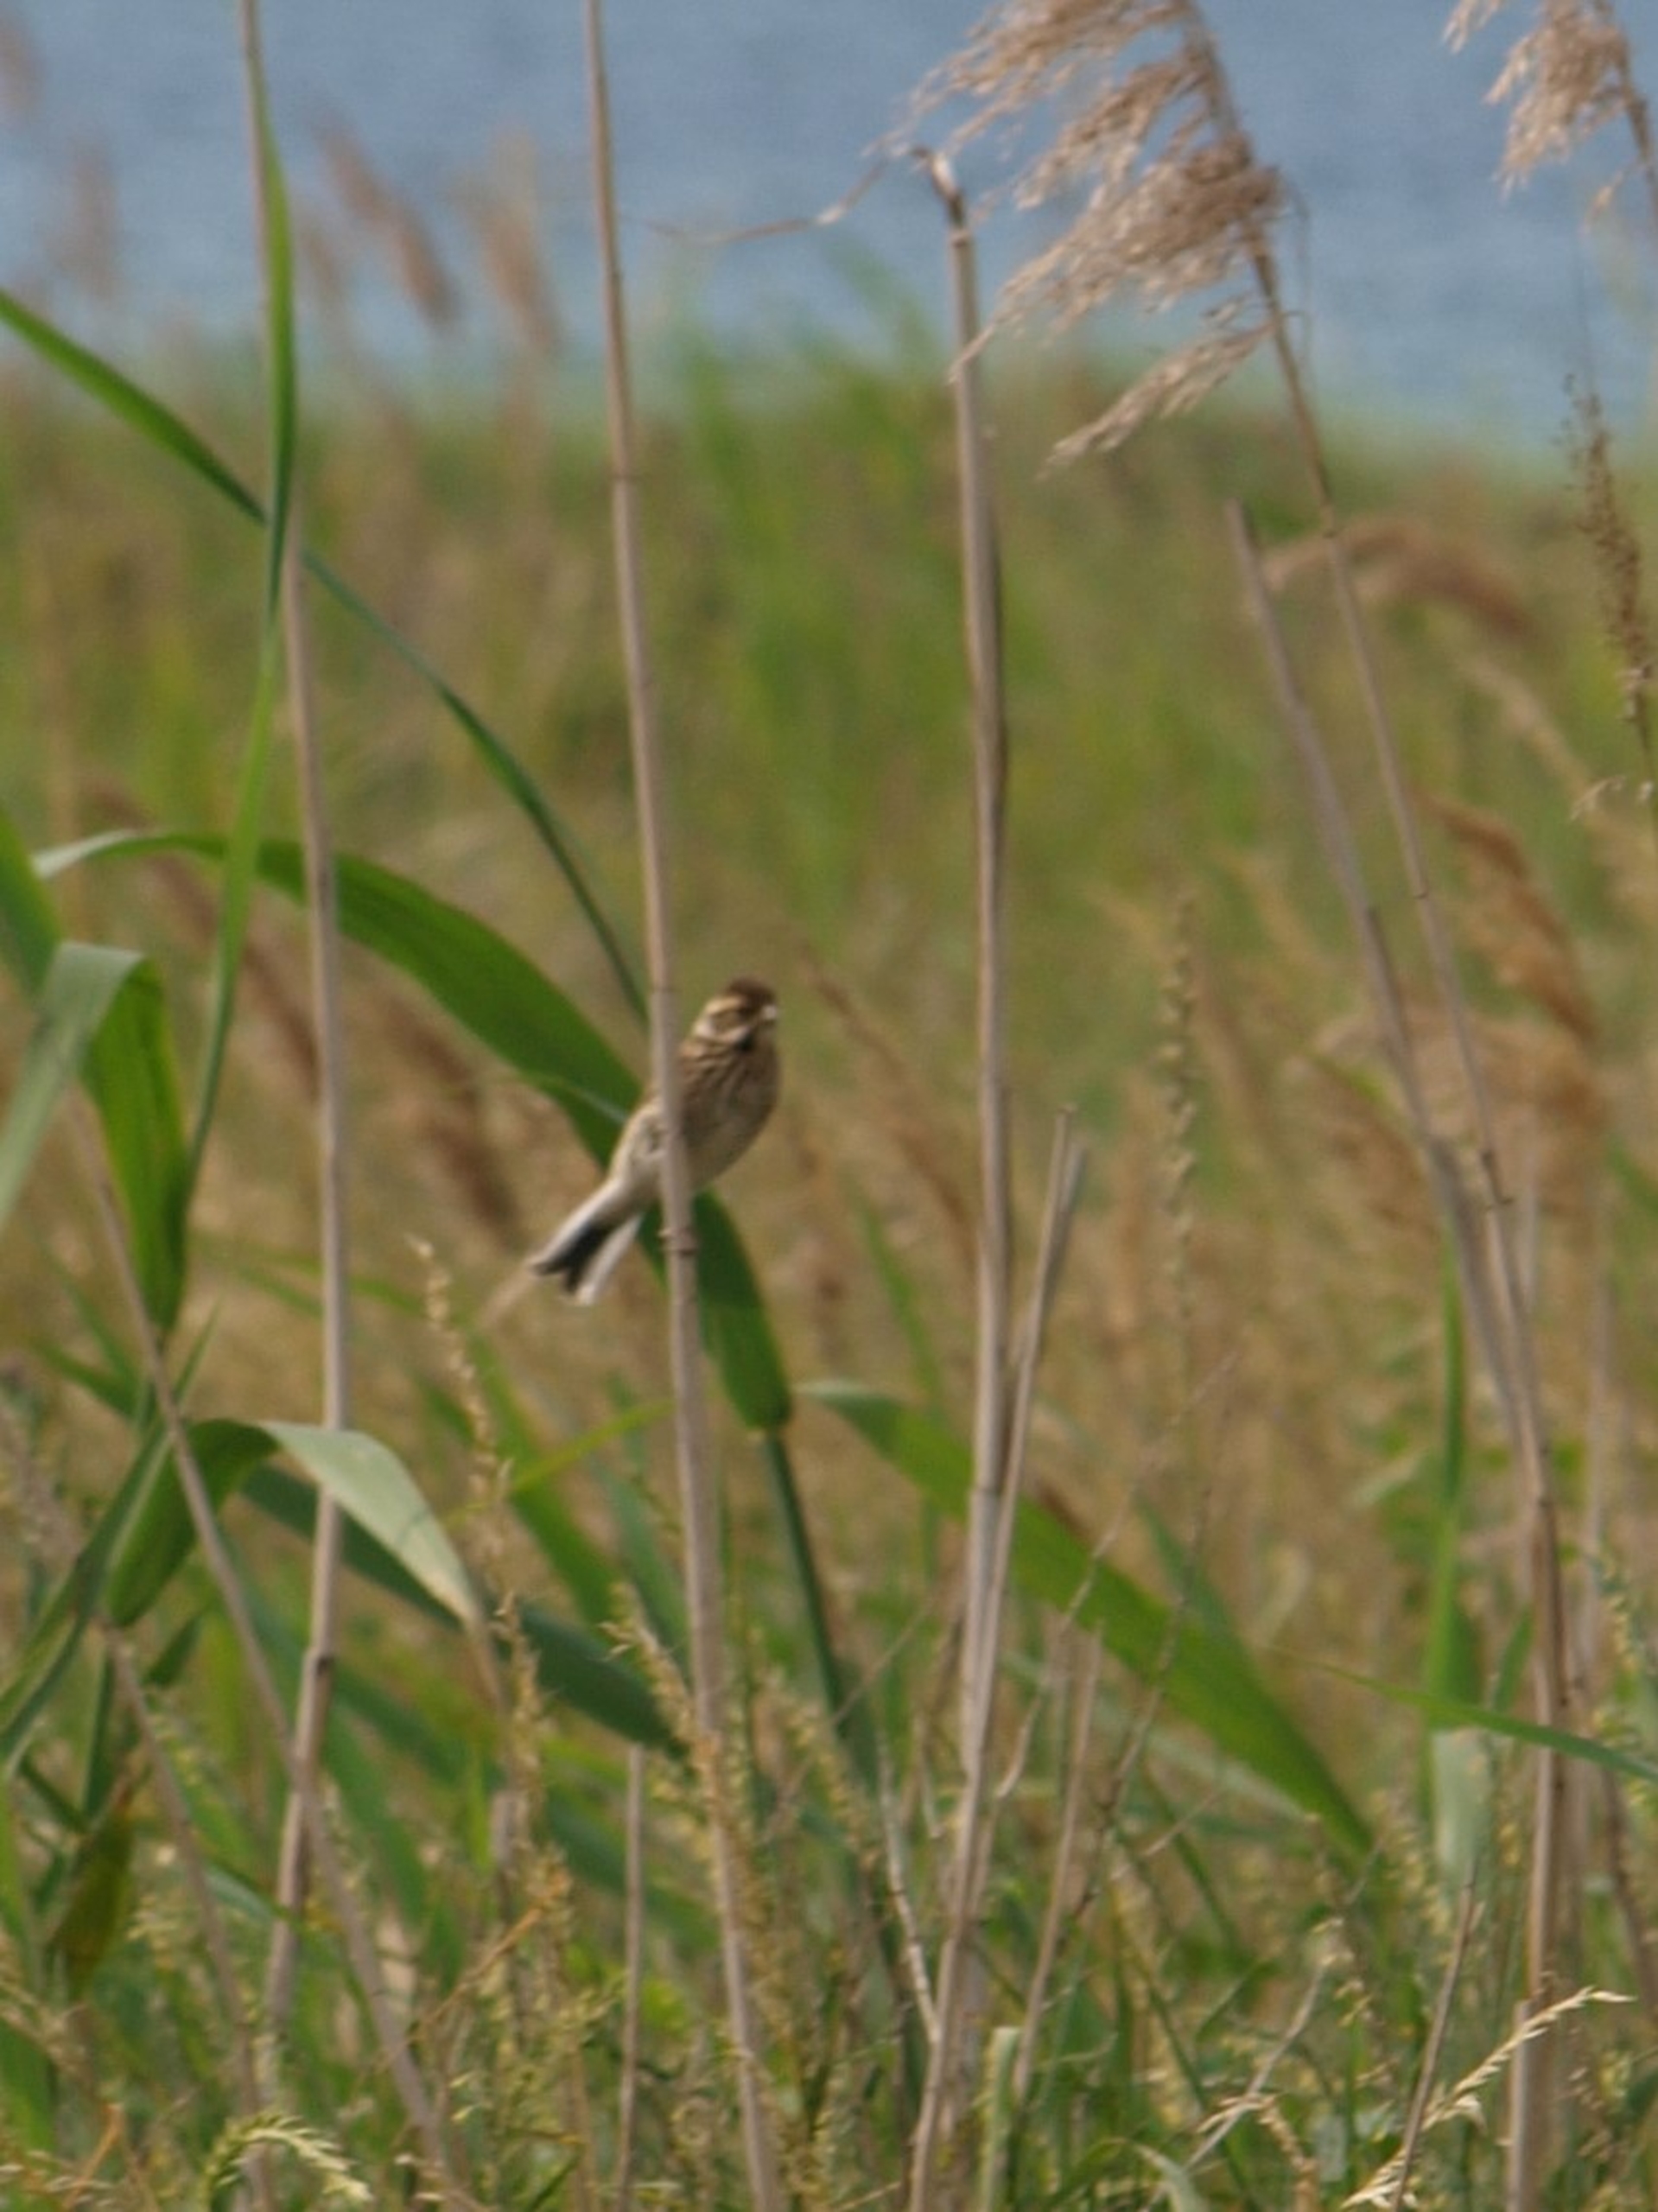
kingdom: Animalia
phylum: Chordata
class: Aves
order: Passeriformes
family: Emberizidae
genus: Emberiza
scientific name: Emberiza schoeniclus
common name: Rørspurv
